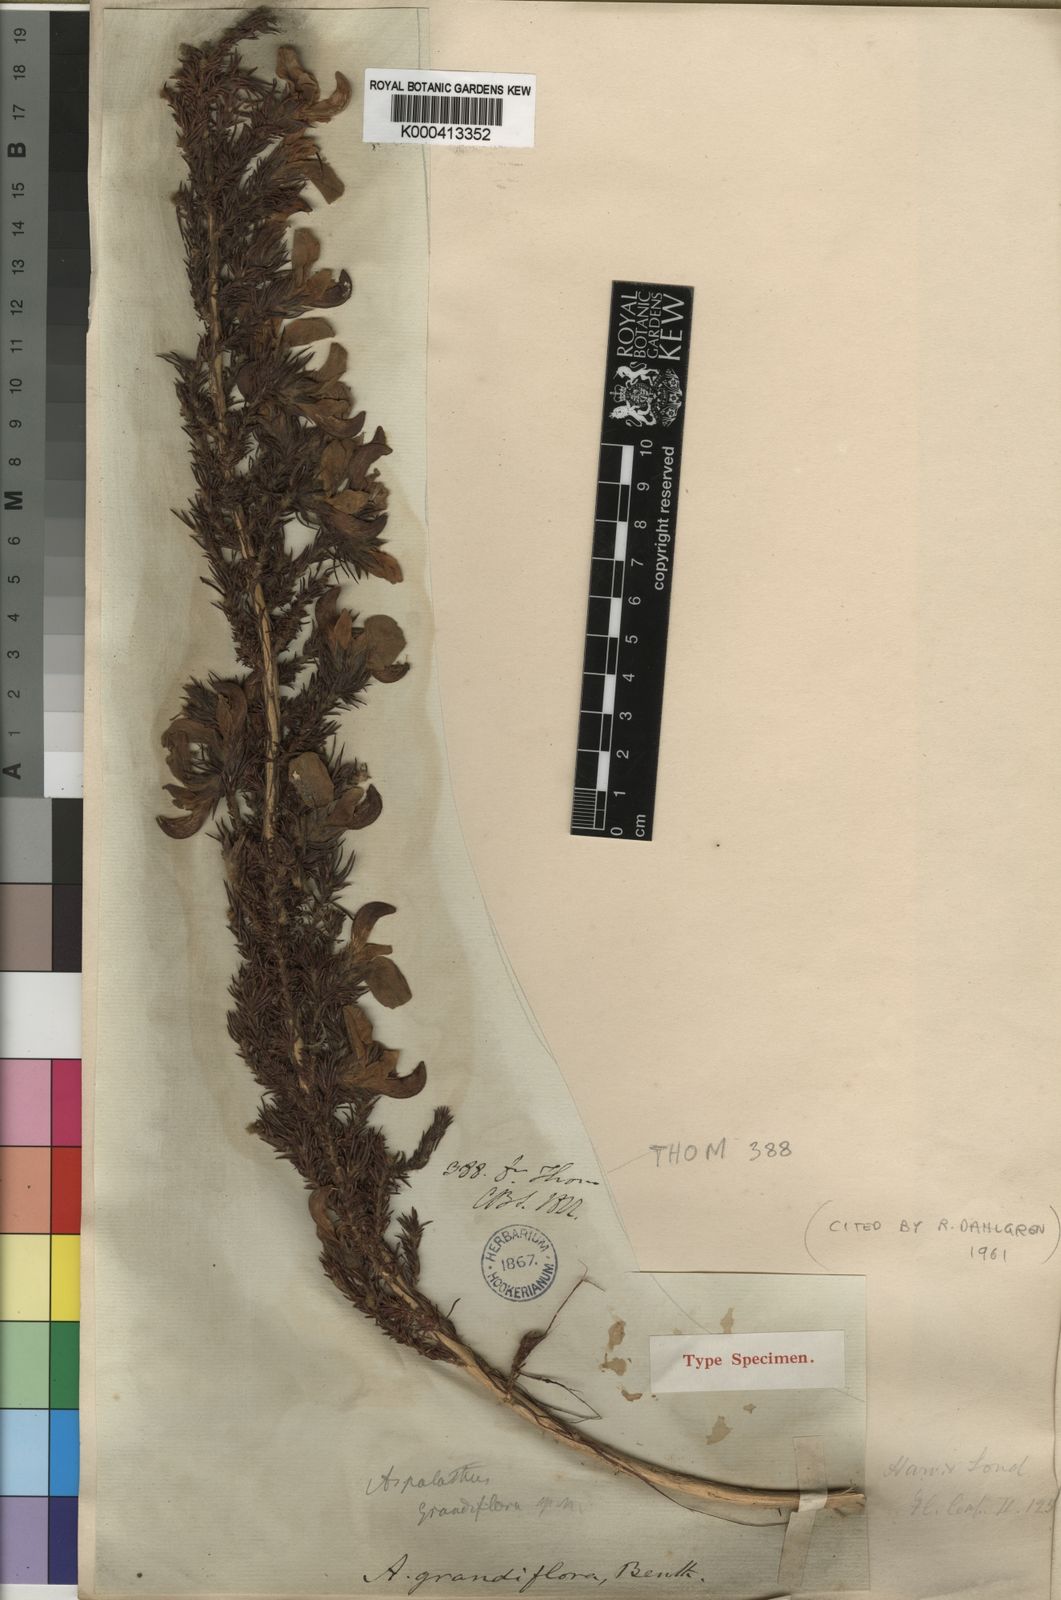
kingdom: Plantae
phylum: Tracheophyta
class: Magnoliopsida
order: Fabales
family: Fabaceae
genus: Aspalathus
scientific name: Aspalathus grandiflora
